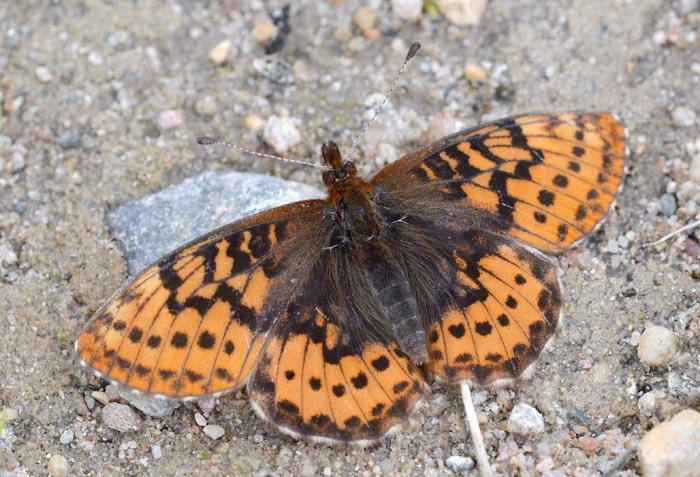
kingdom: Animalia
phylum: Arthropoda
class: Insecta
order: Lepidoptera
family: Nymphalidae
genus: Boloria
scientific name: Boloria frigga
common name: Frigga Fritillary
